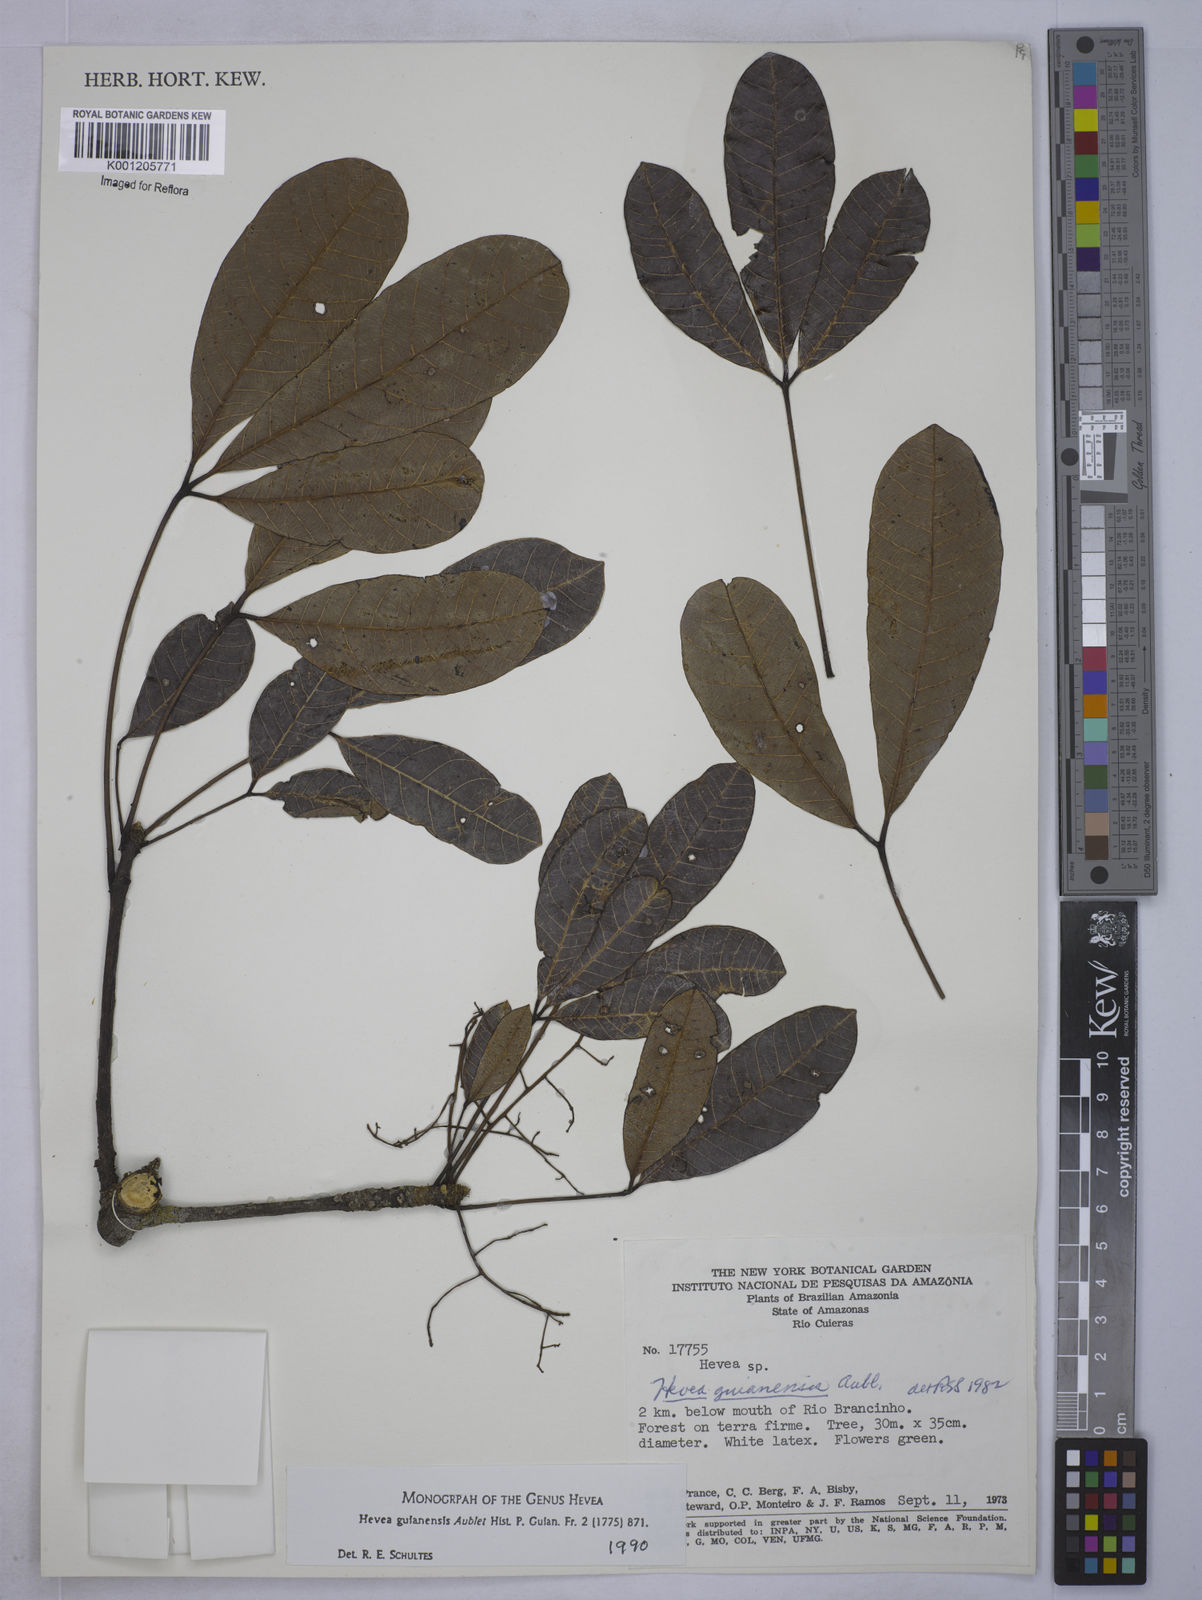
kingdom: Plantae
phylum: Tracheophyta
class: Magnoliopsida
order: Malpighiales
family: Euphorbiaceae
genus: Hevea
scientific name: Hevea guianensis
